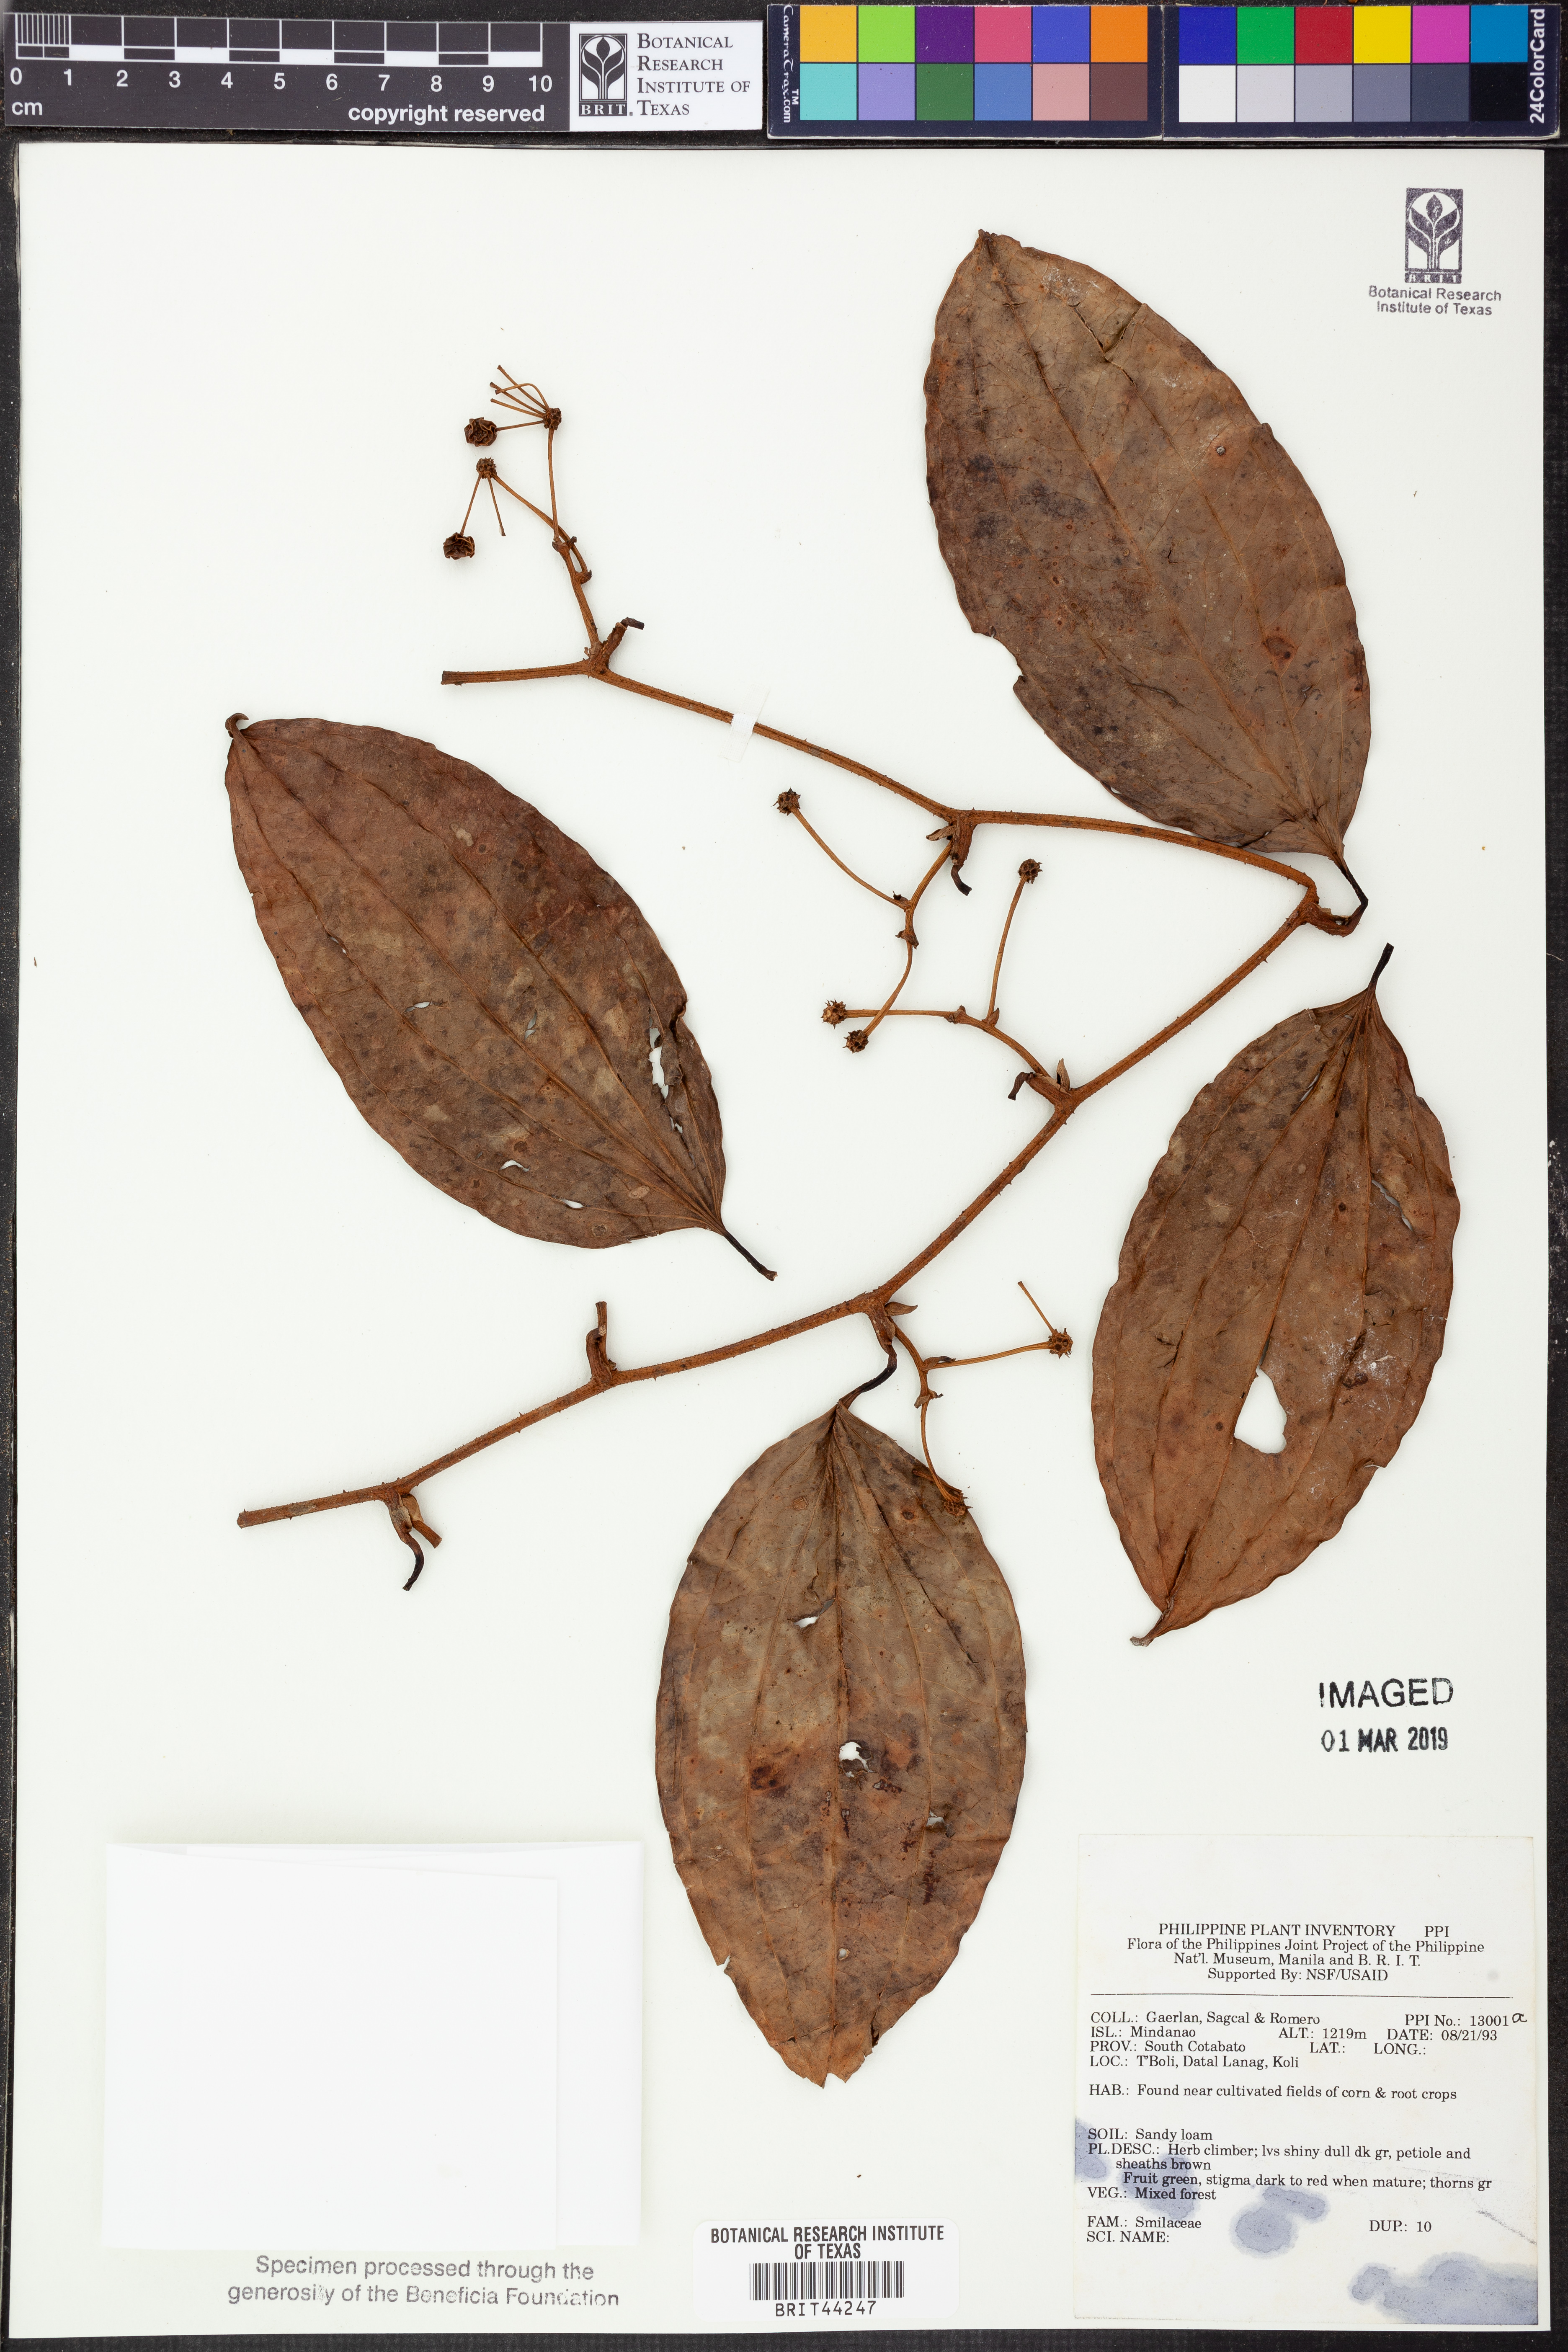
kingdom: Plantae
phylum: Tracheophyta
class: Liliopsida
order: Liliales
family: Smilacaceae
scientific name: Smilacaceae
